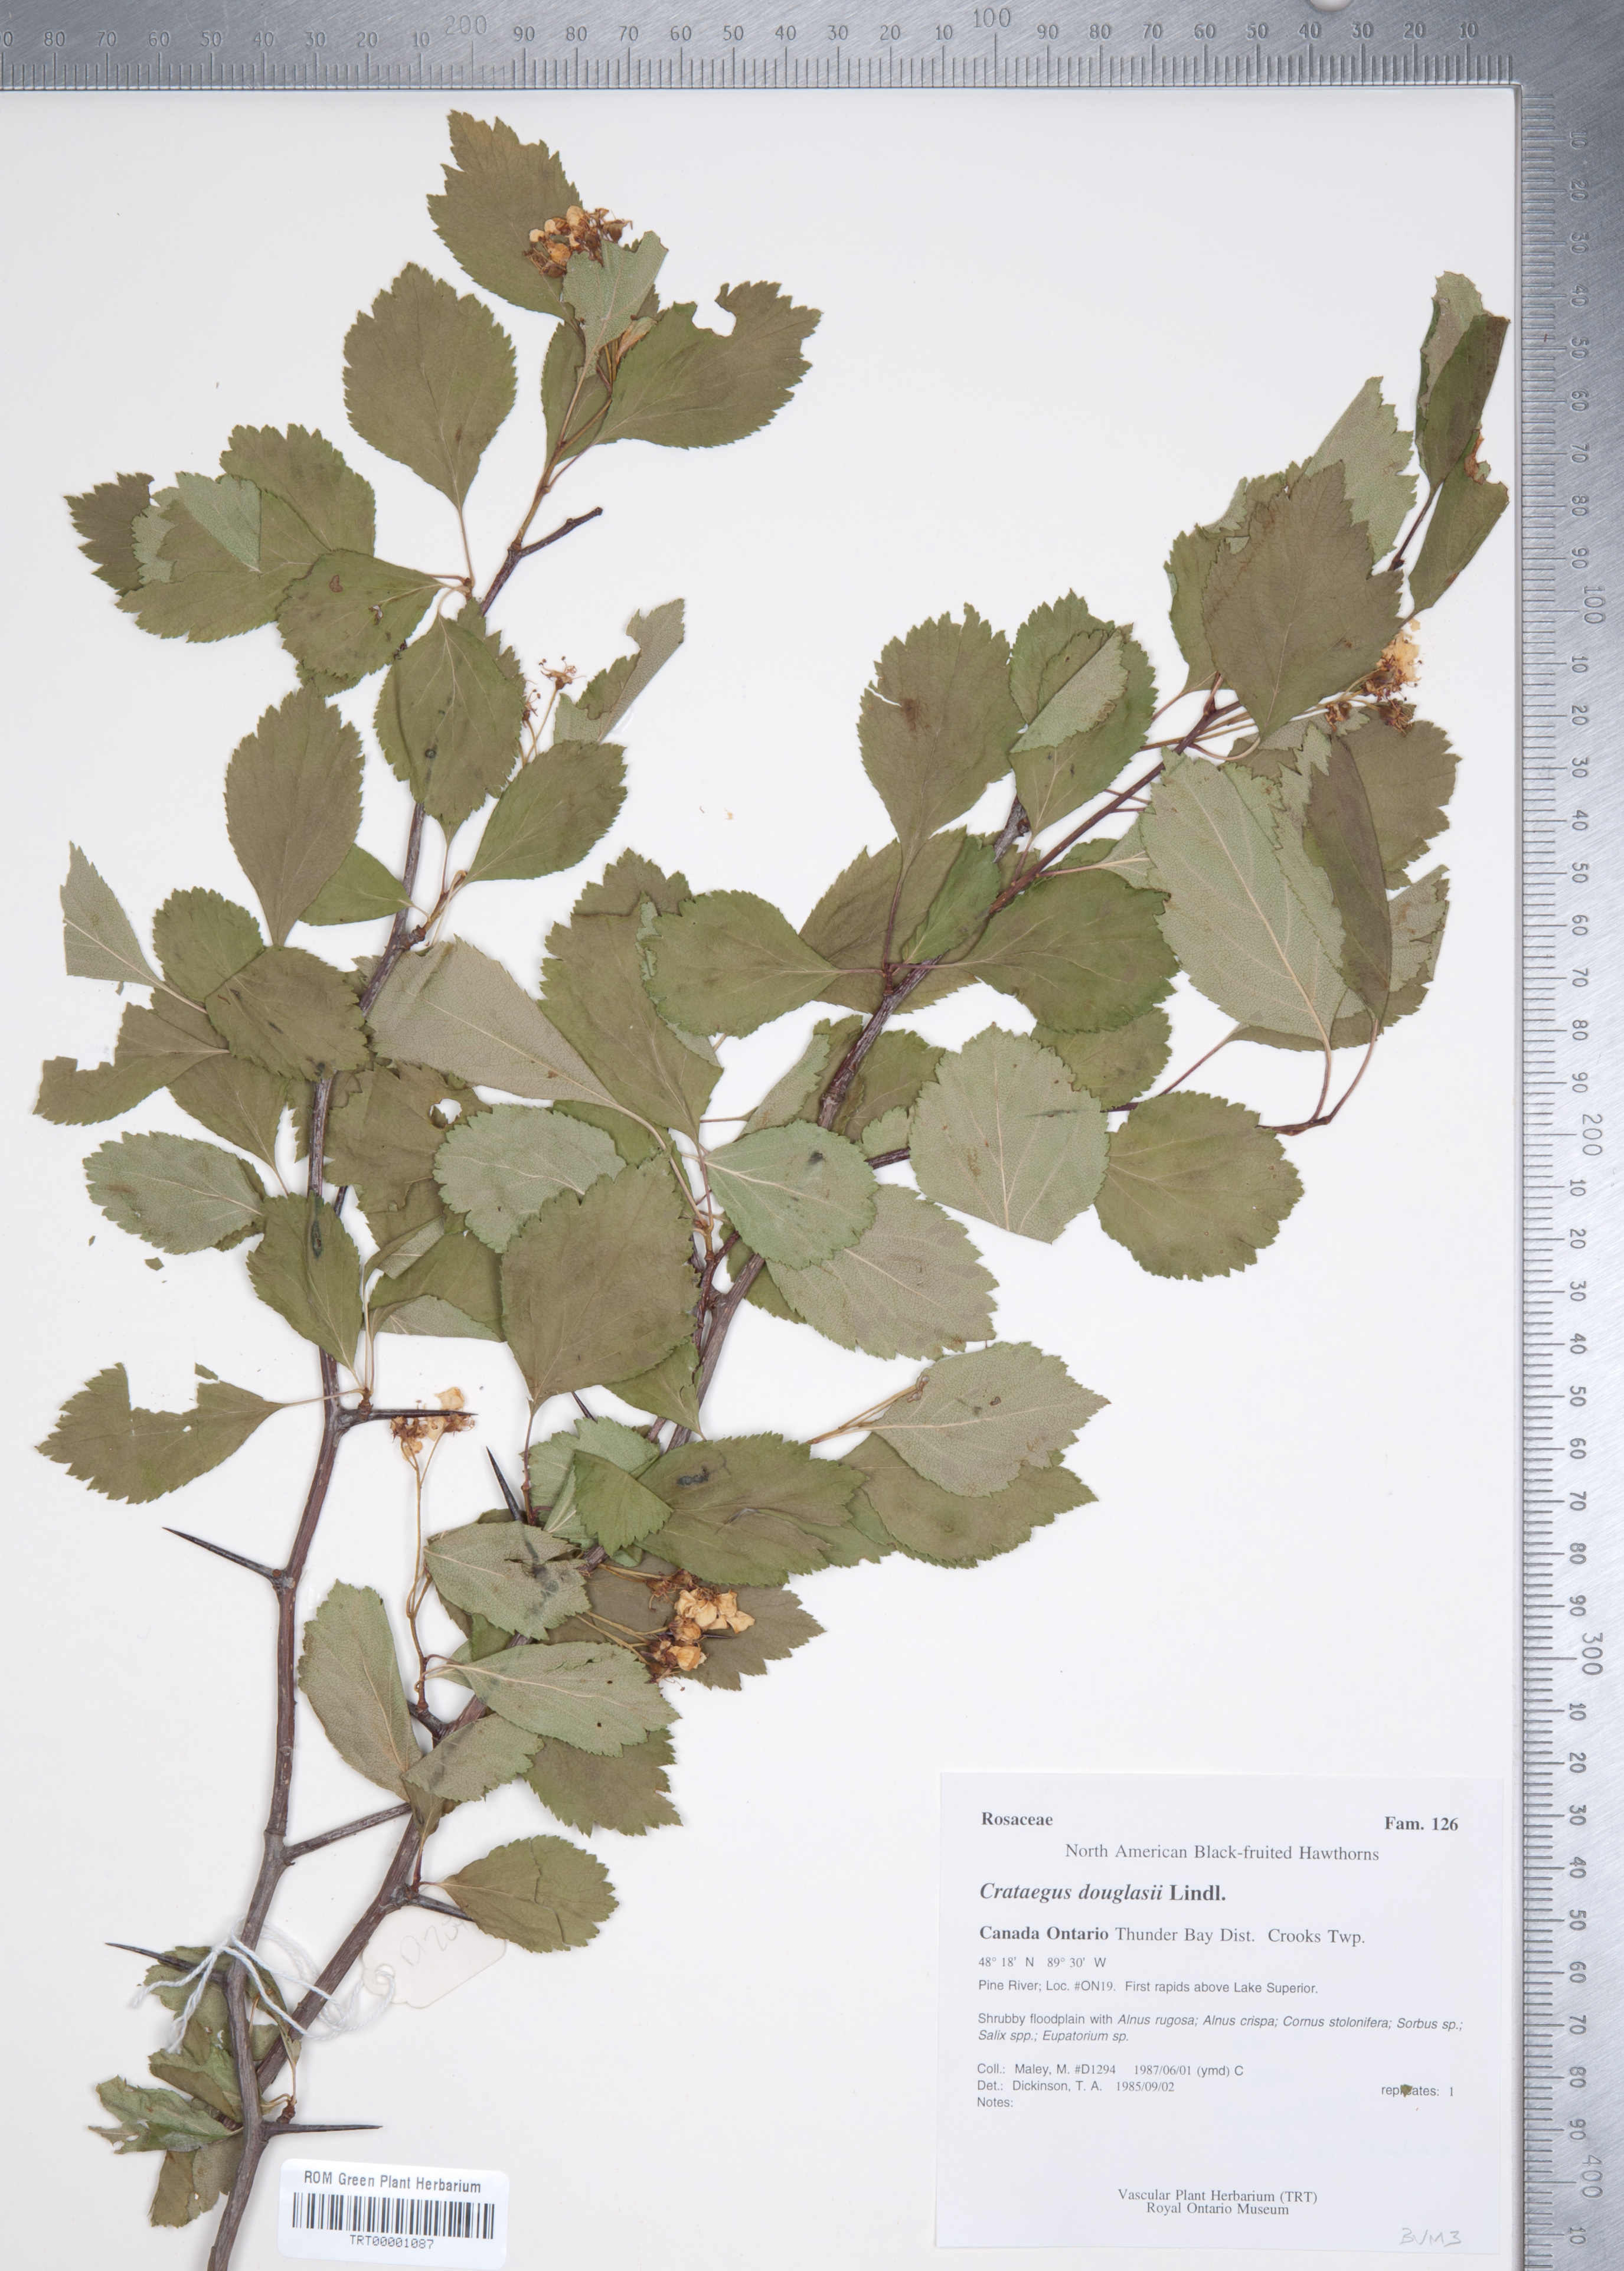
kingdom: Plantae
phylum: Tracheophyta
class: Magnoliopsida
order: Rosales
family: Rosaceae
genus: Crataegus
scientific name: Crataegus douglasii
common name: Black hawthorn
